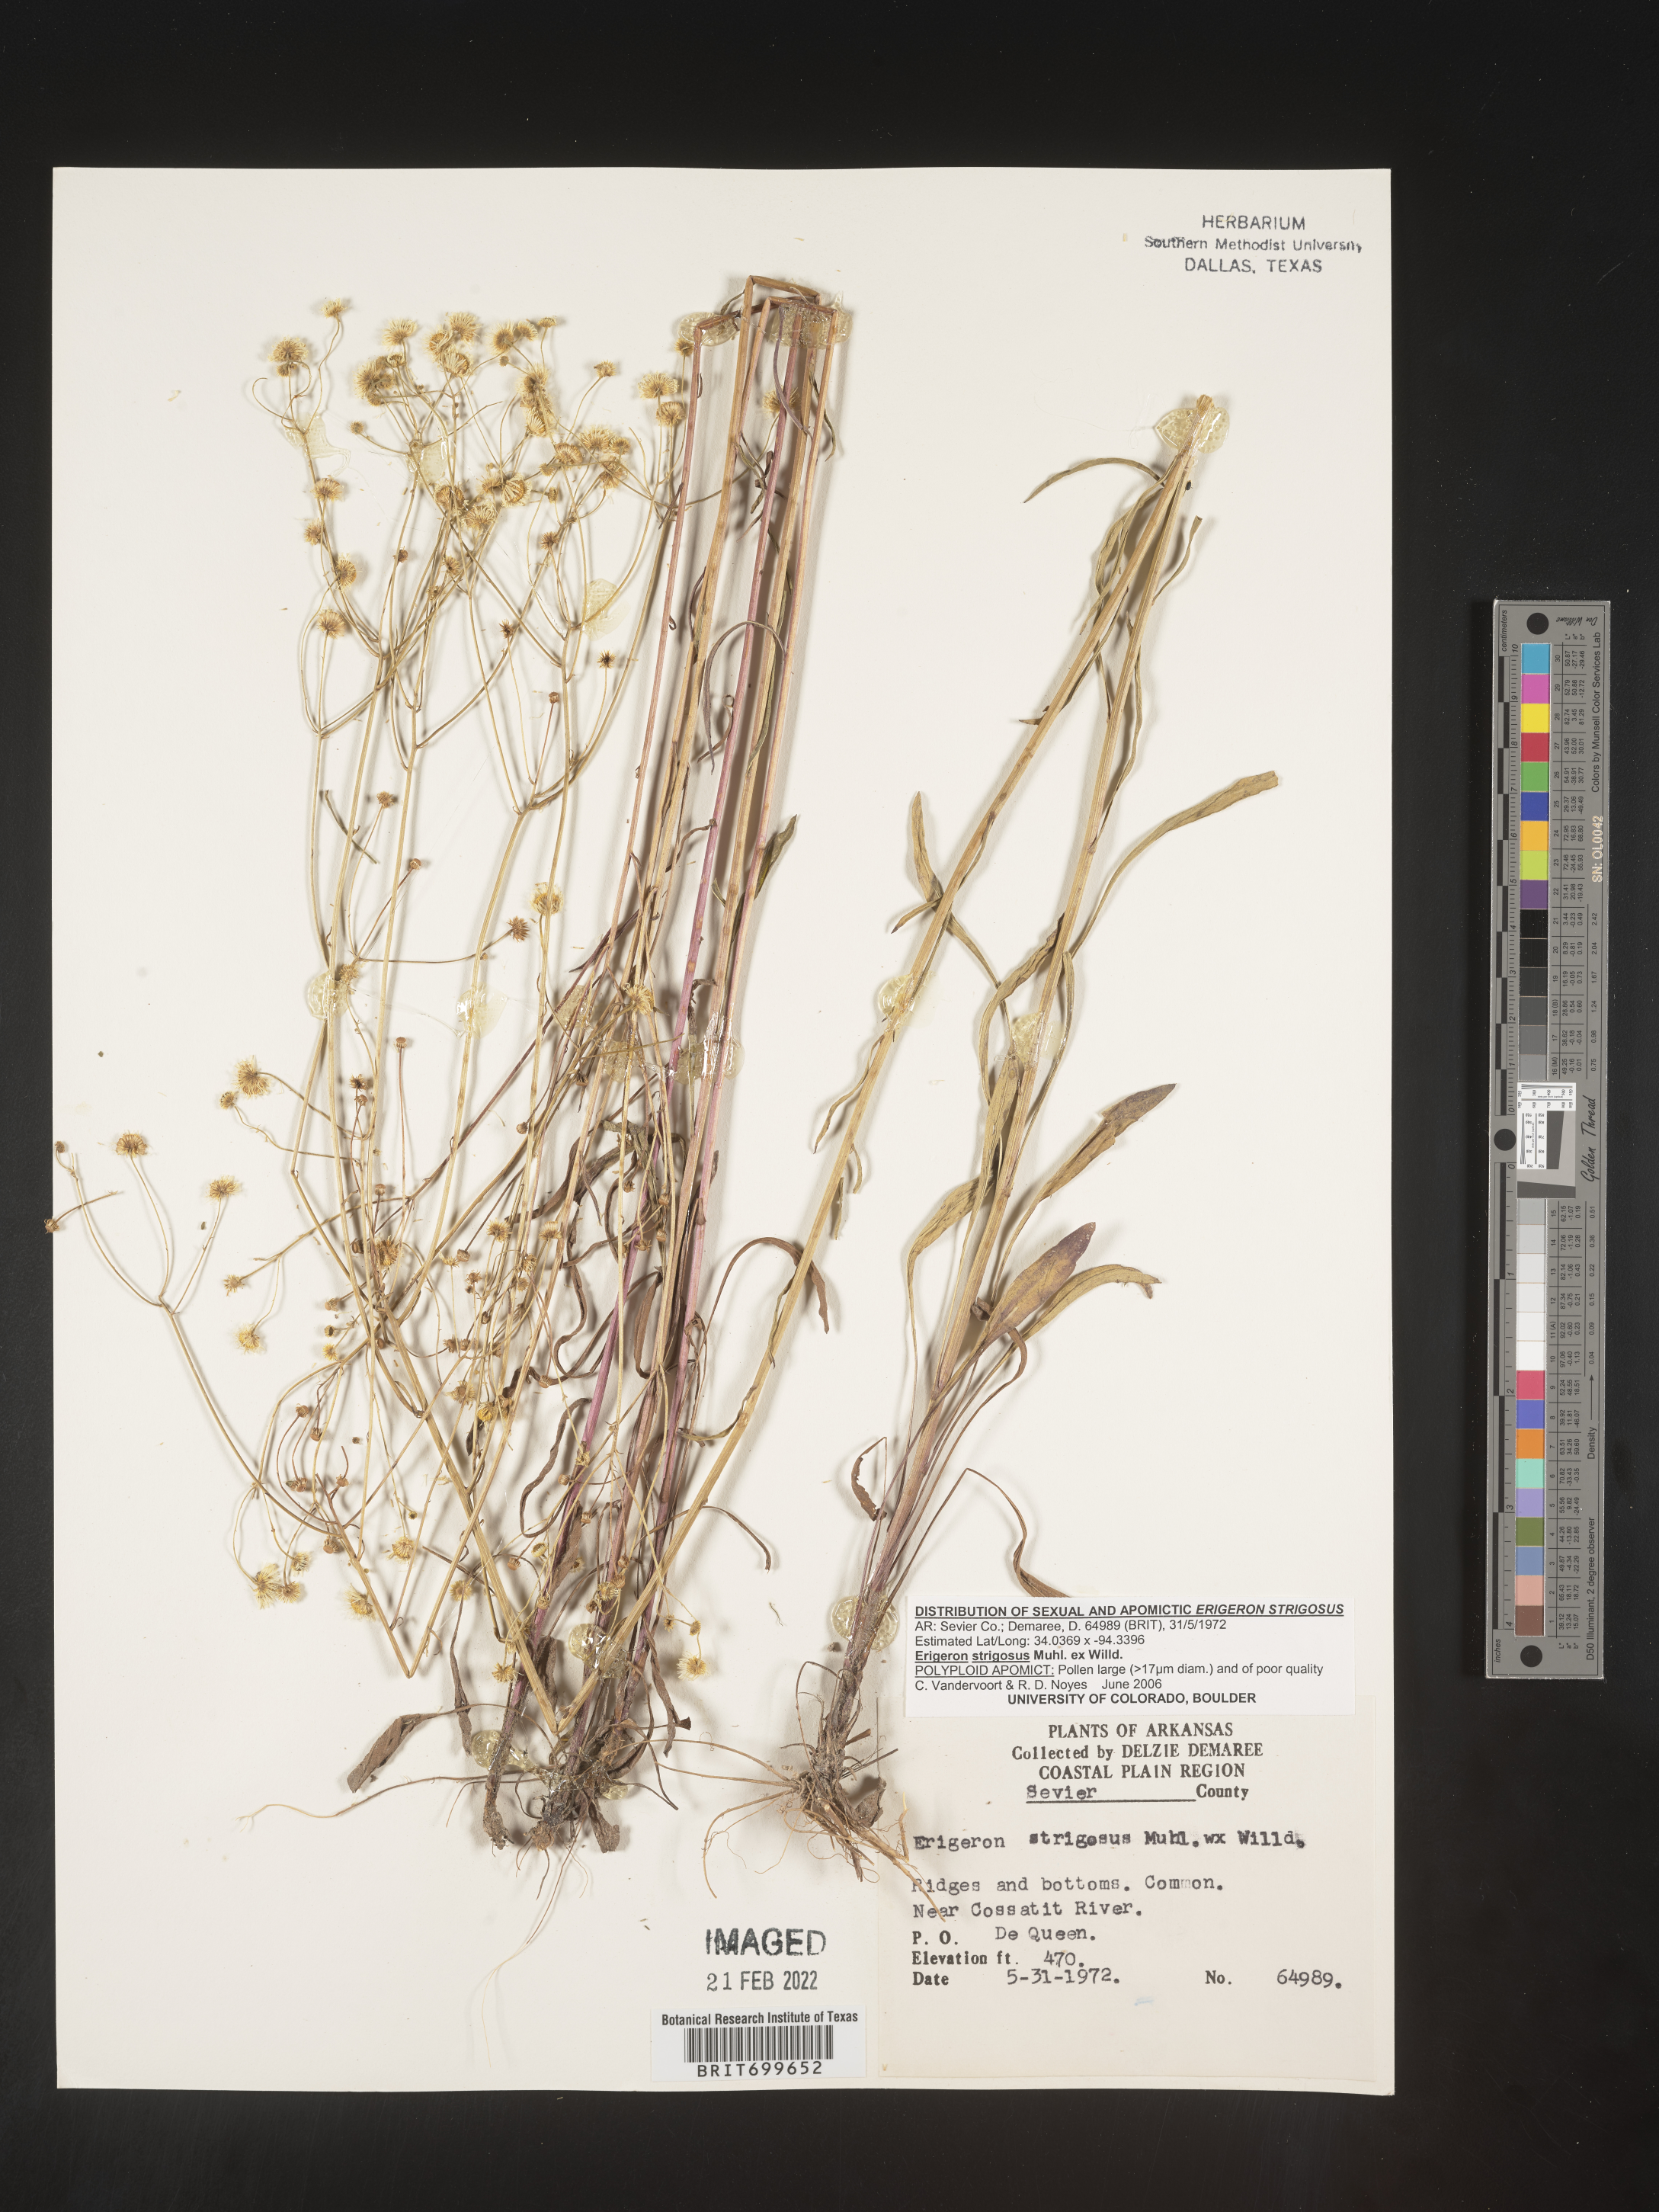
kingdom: Plantae
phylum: Tracheophyta
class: Magnoliopsida
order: Asterales
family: Asteraceae
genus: Erigeron
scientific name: Erigeron strigosus
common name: Common eastern fleabane
